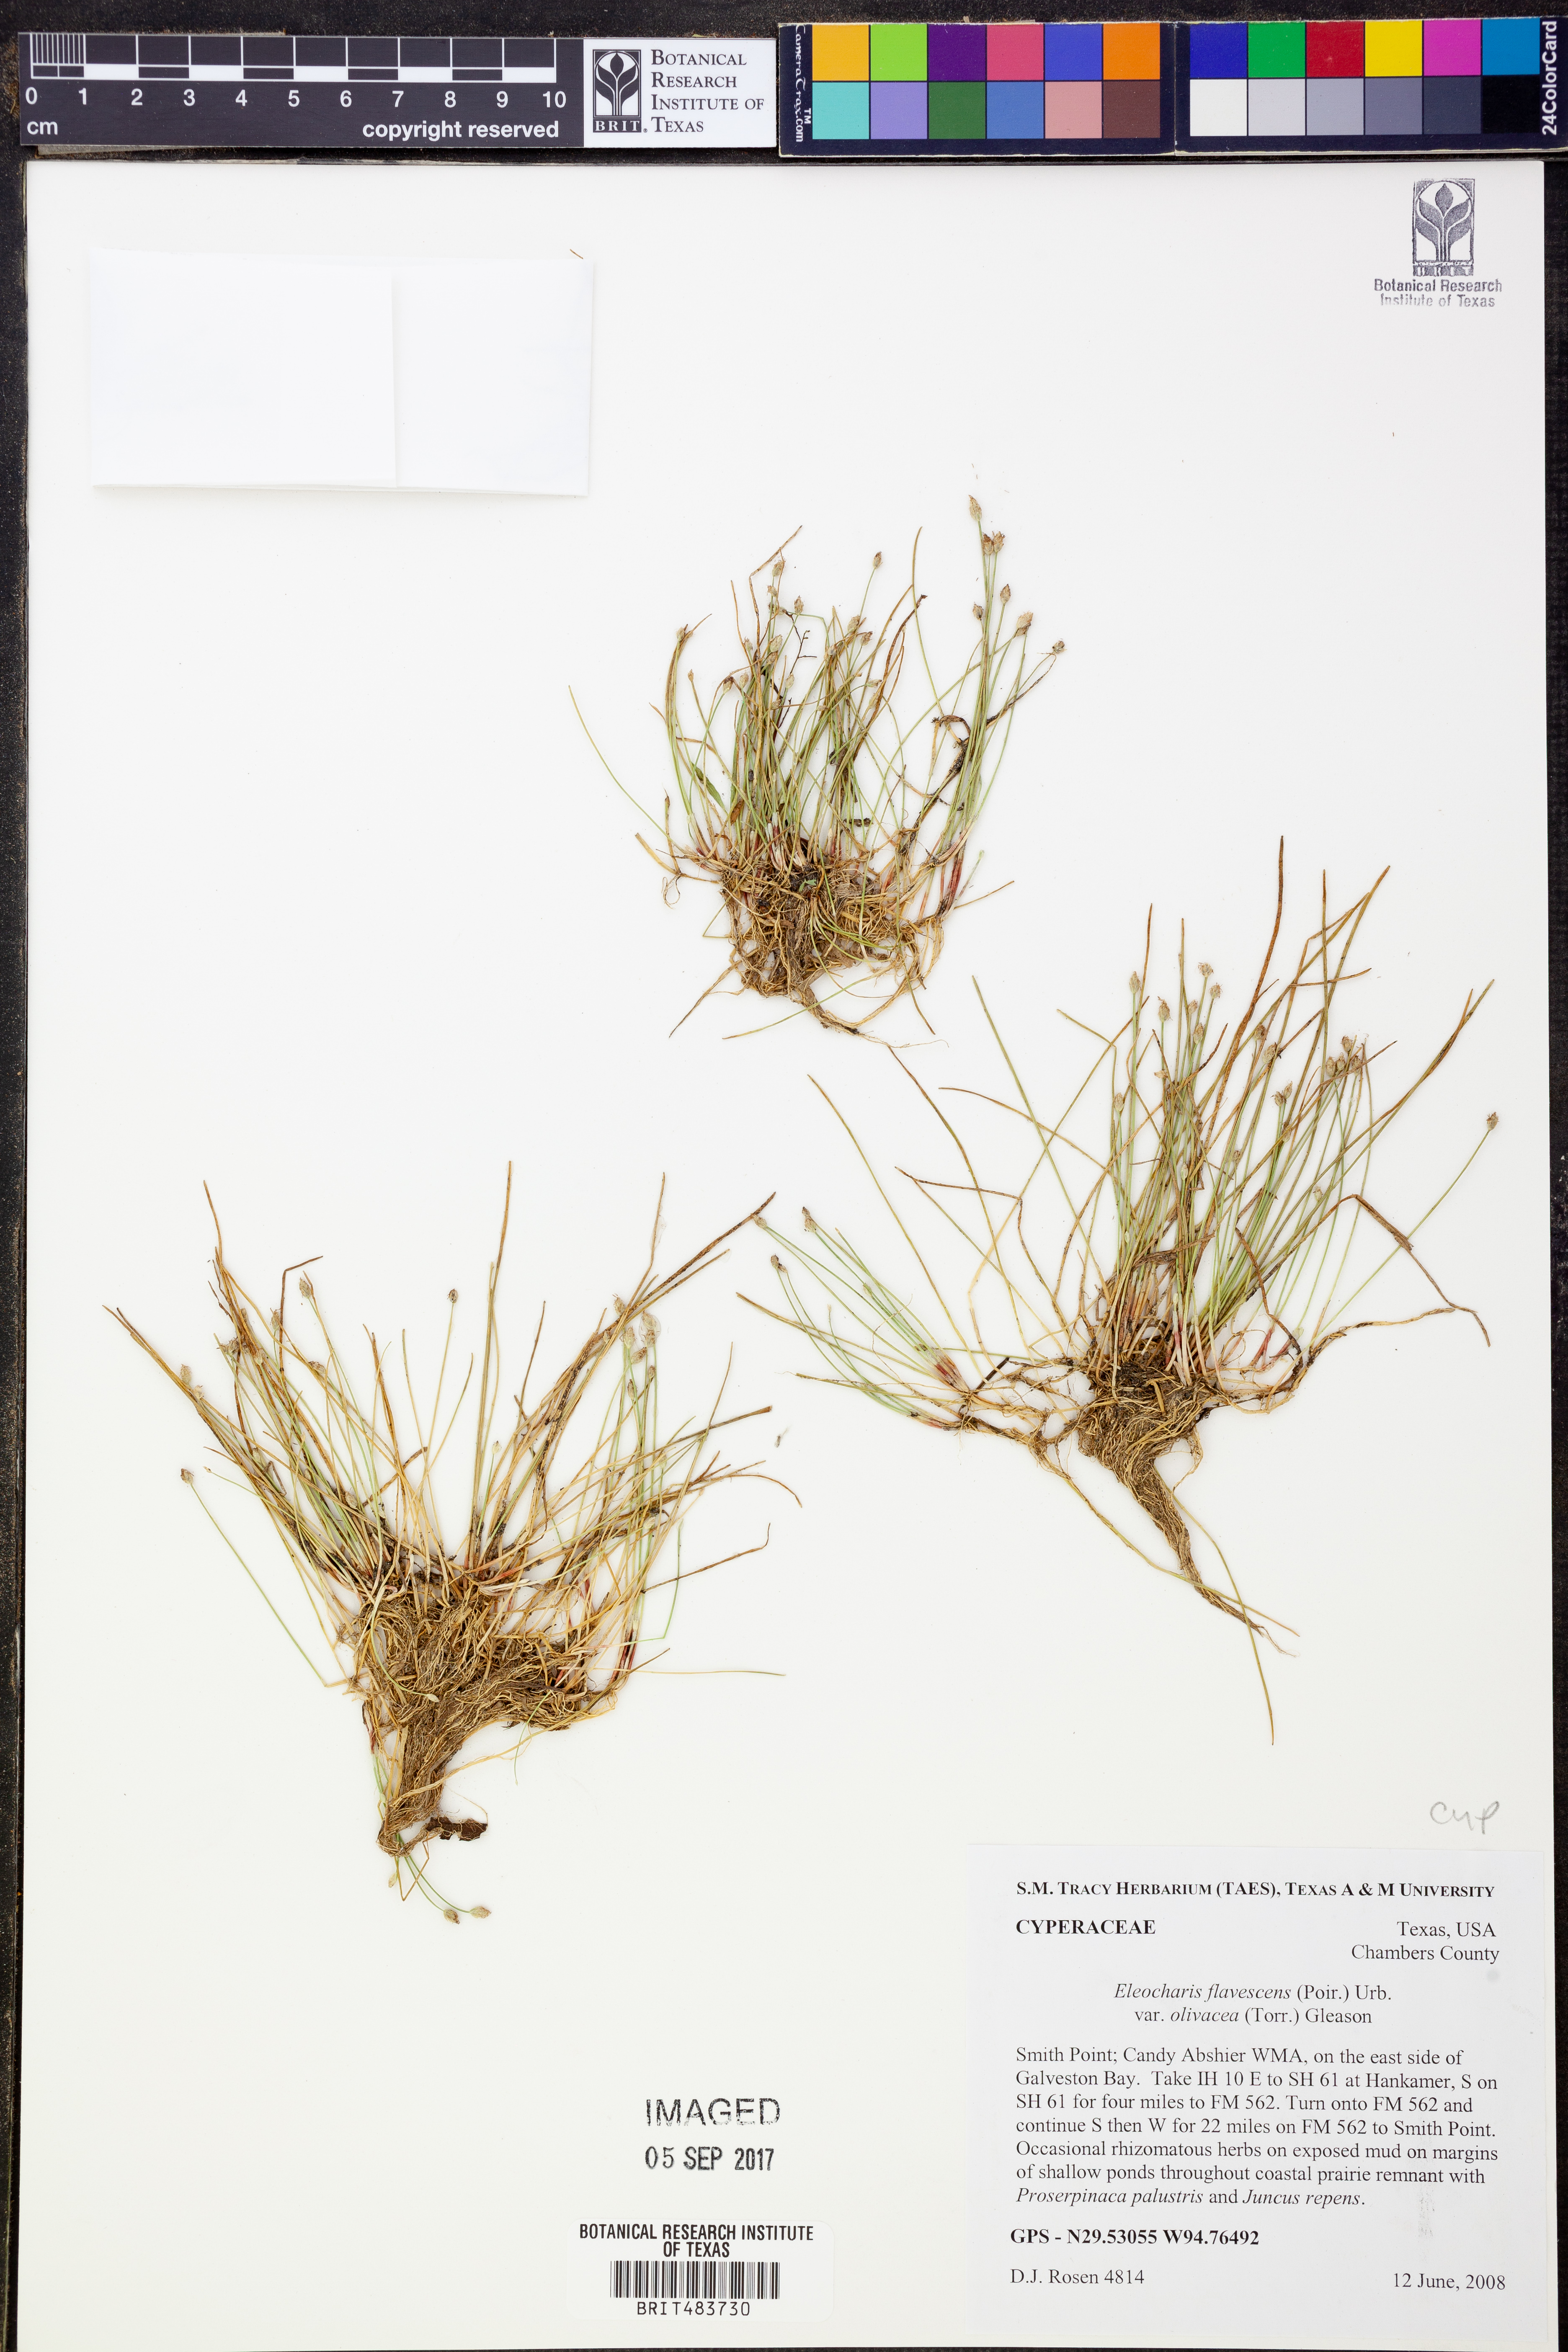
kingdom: Plantae
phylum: Tracheophyta
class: Liliopsida
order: Poales
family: Cyperaceae
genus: Eleocharis
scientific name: Eleocharis flavescens
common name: Yellow spikerush
